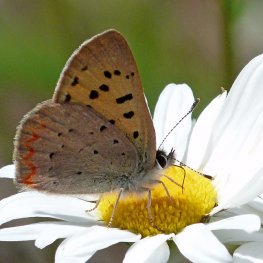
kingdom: Animalia
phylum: Arthropoda
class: Insecta
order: Lepidoptera
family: Sesiidae
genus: Sesia
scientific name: Sesia Lycaena helloides
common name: Purplish Copper
